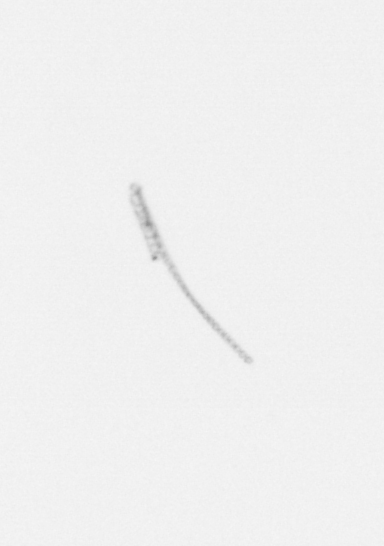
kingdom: Chromista
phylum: Ochrophyta
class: Bacillariophyceae
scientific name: Bacillariophyceae
